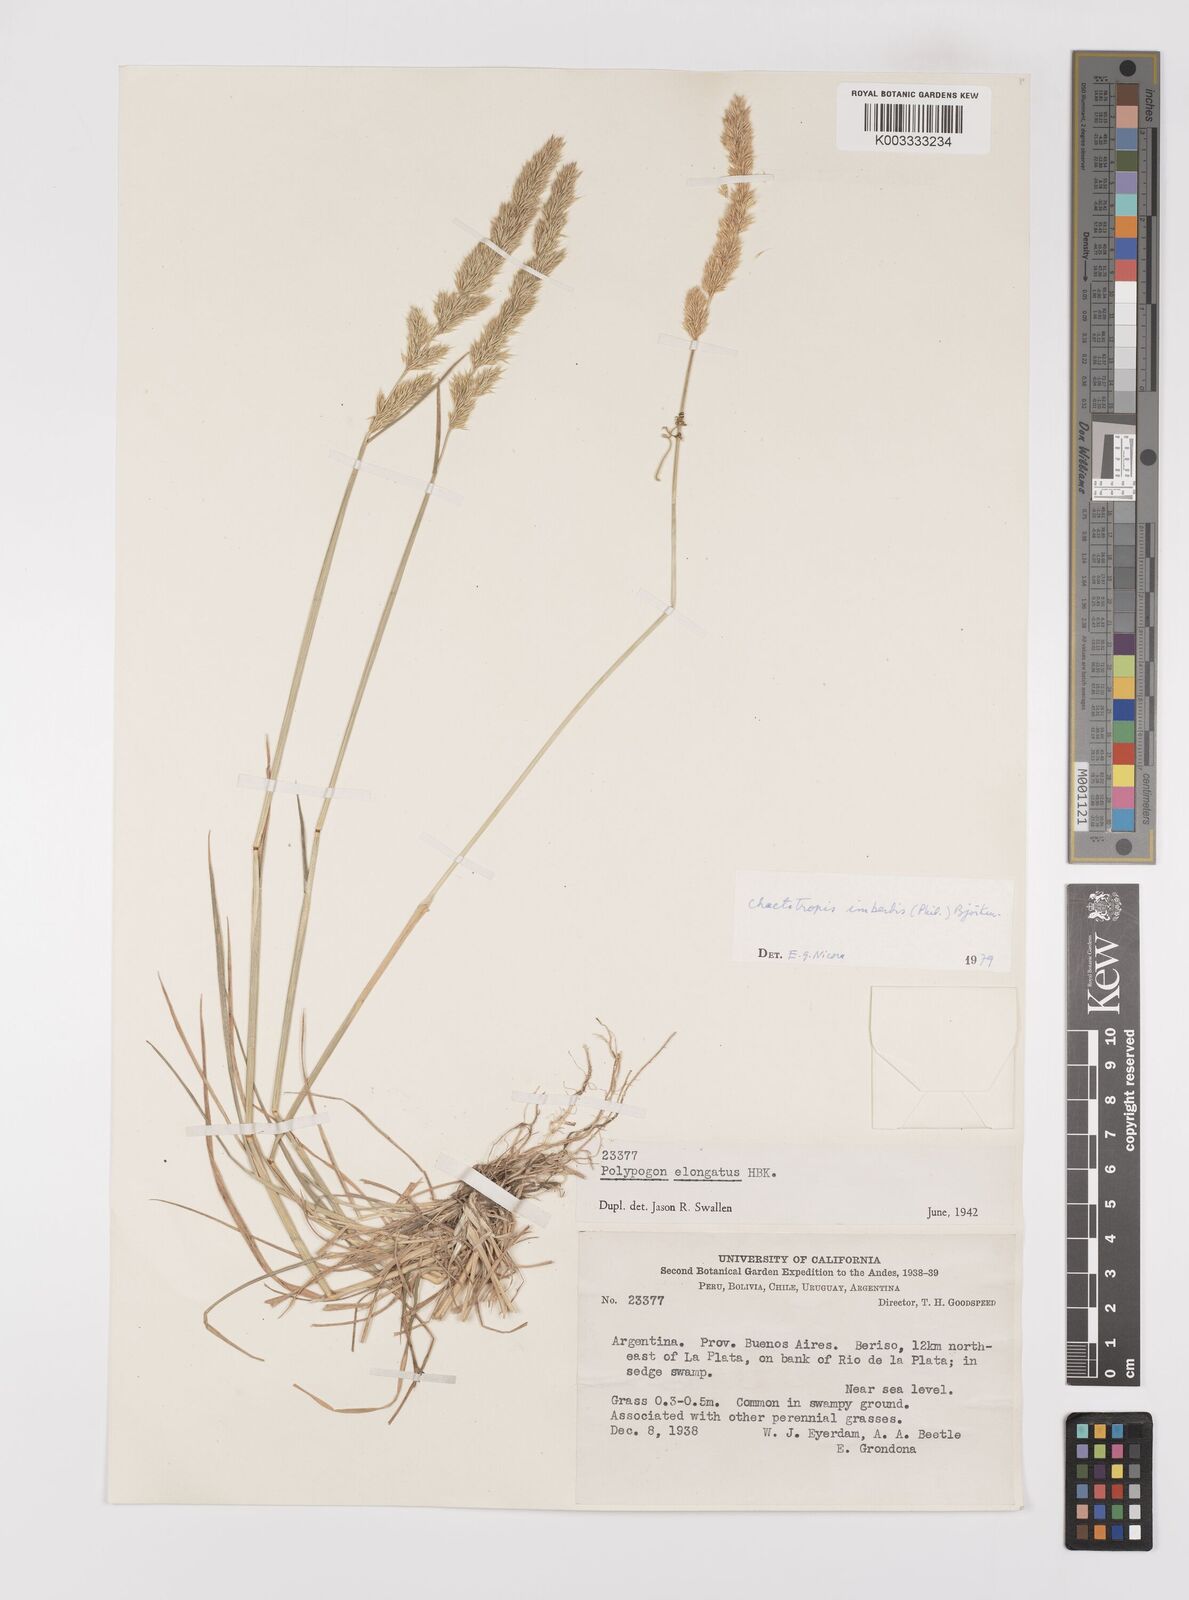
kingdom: Plantae
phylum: Tracheophyta
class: Liliopsida
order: Poales
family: Poaceae
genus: Polypogon
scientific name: Polypogon imberbis
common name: Beardless rabbitsfoot grass
